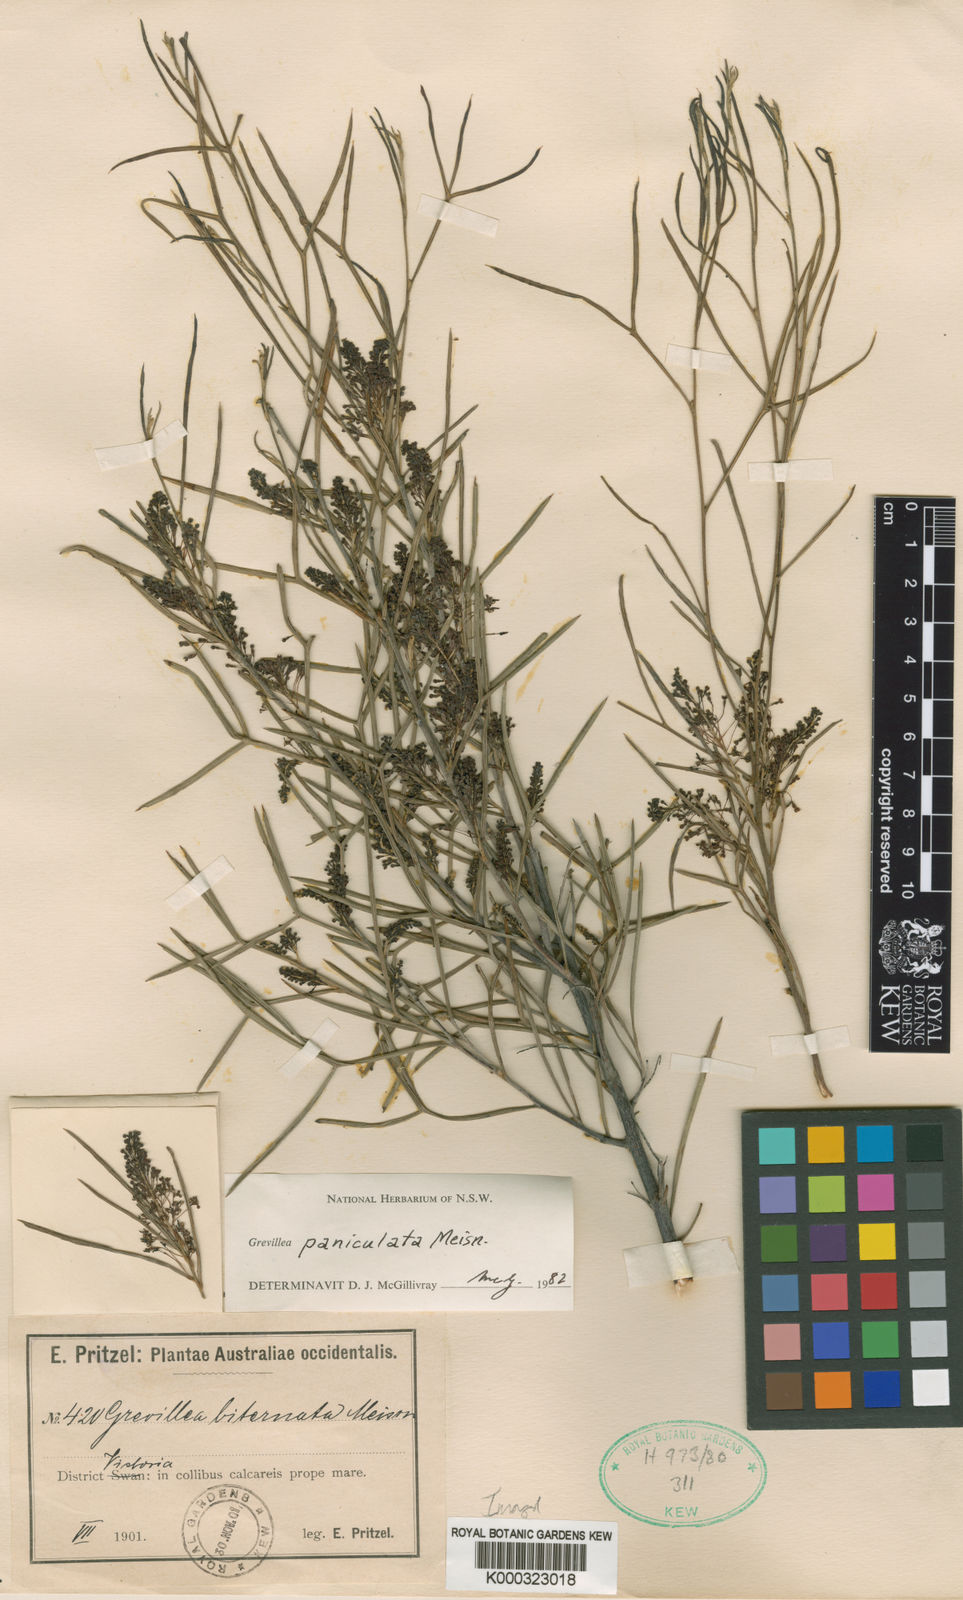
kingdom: Plantae
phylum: Tracheophyta
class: Magnoliopsida
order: Proteales
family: Proteaceae
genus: Grevillea
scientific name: Grevillea biternata
